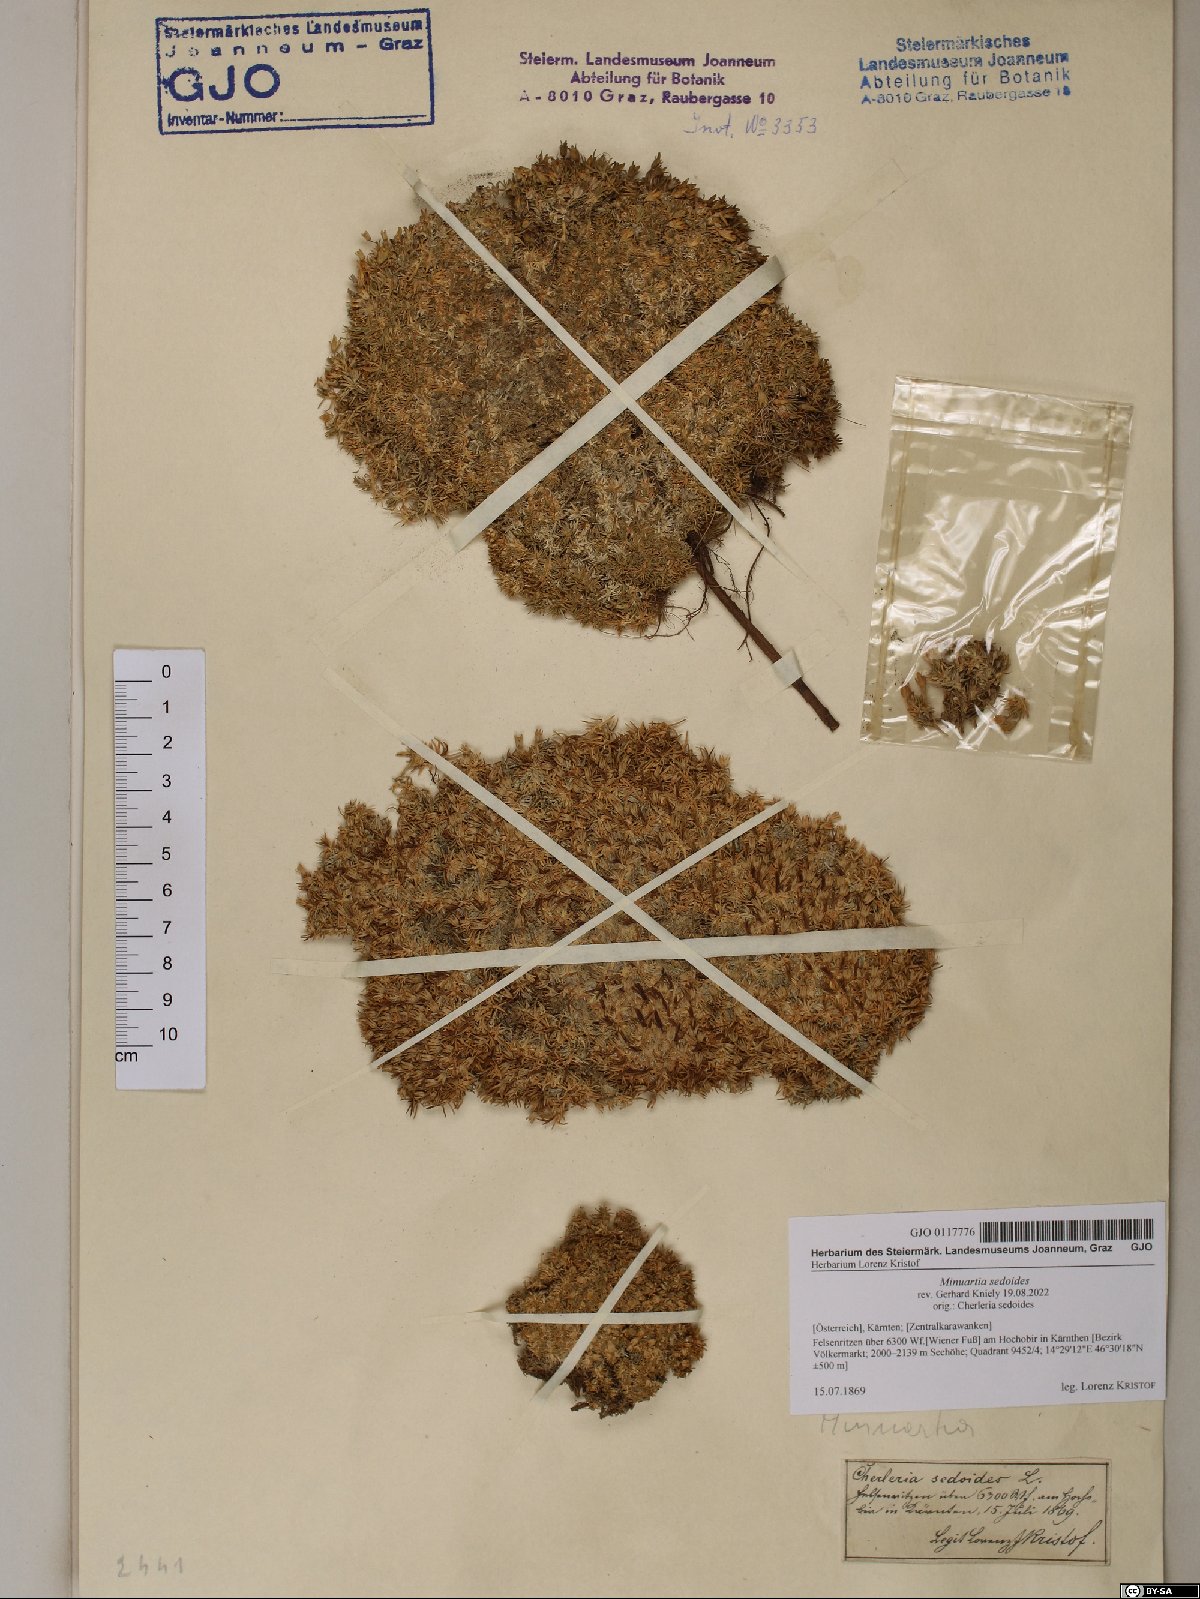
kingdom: Plantae
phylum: Tracheophyta
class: Magnoliopsida
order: Caryophyllales
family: Caryophyllaceae
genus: Cherleria
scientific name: Cherleria sedoides
